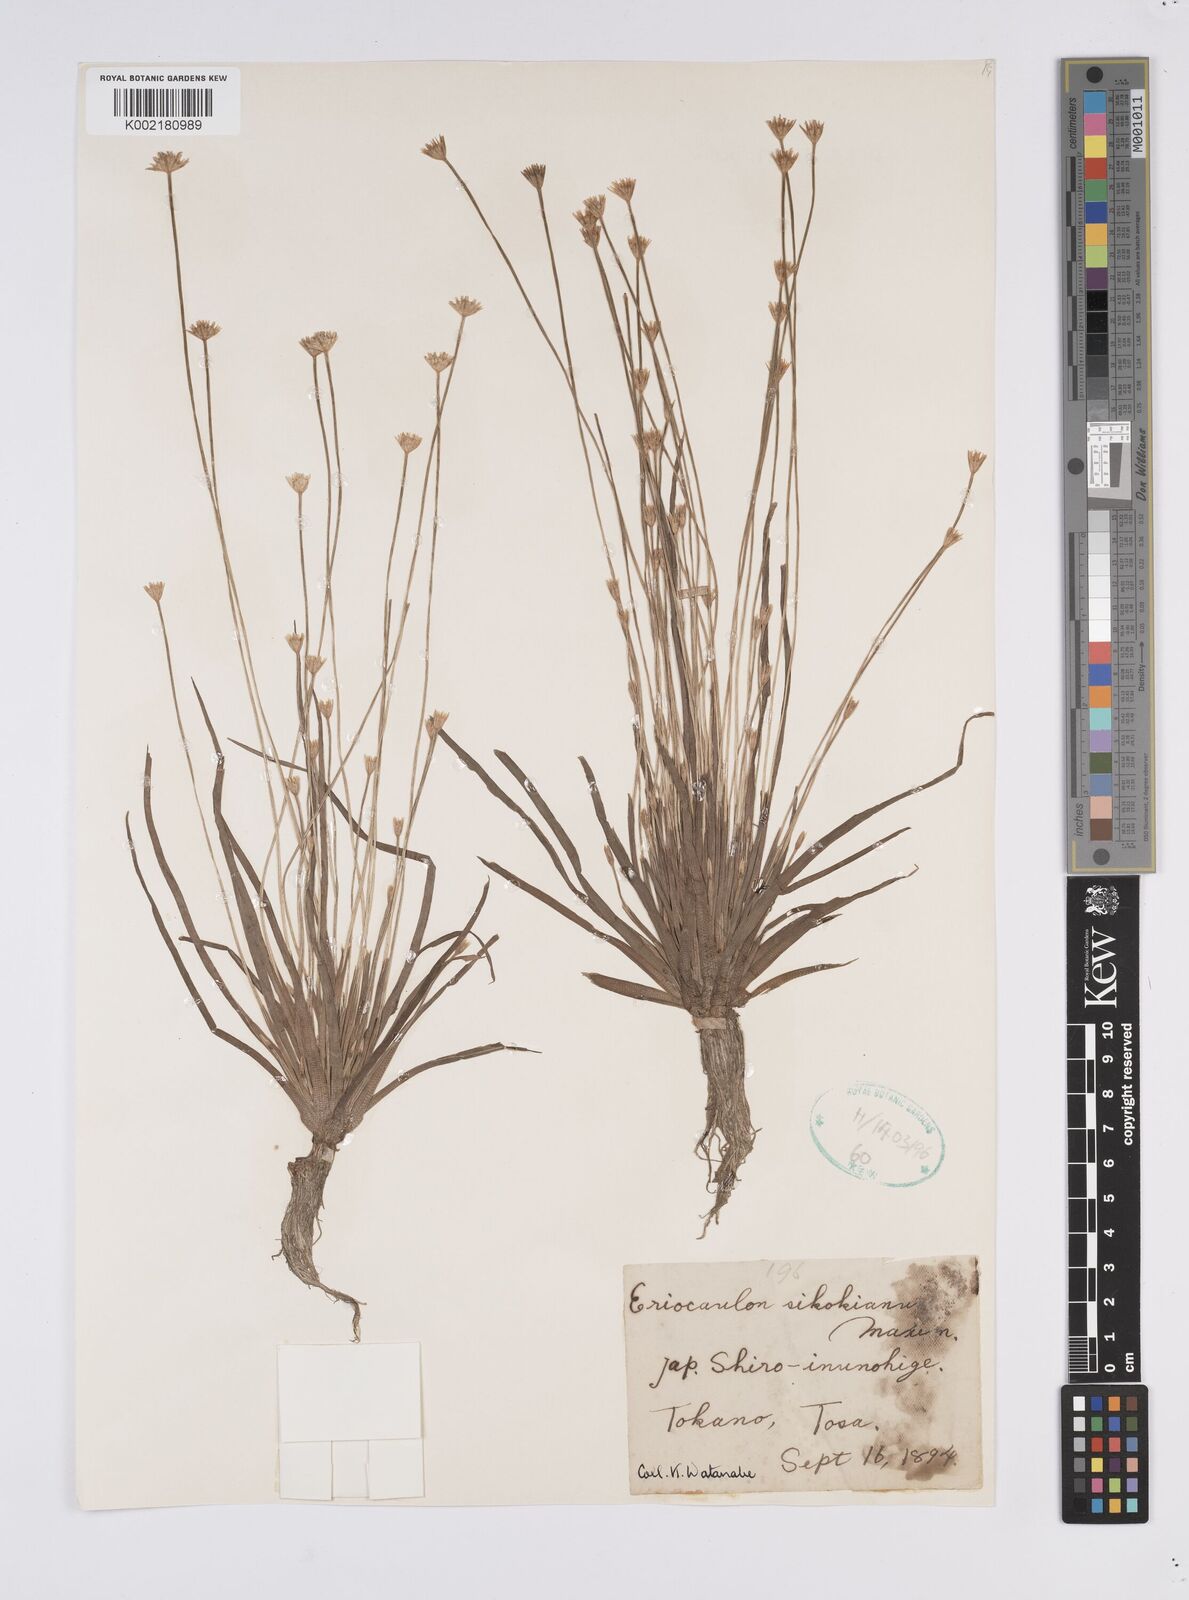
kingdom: Plantae
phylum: Tracheophyta
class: Liliopsida
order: Poales
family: Eriocaulaceae
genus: Eriocaulon
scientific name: Eriocaulon miquelianum
